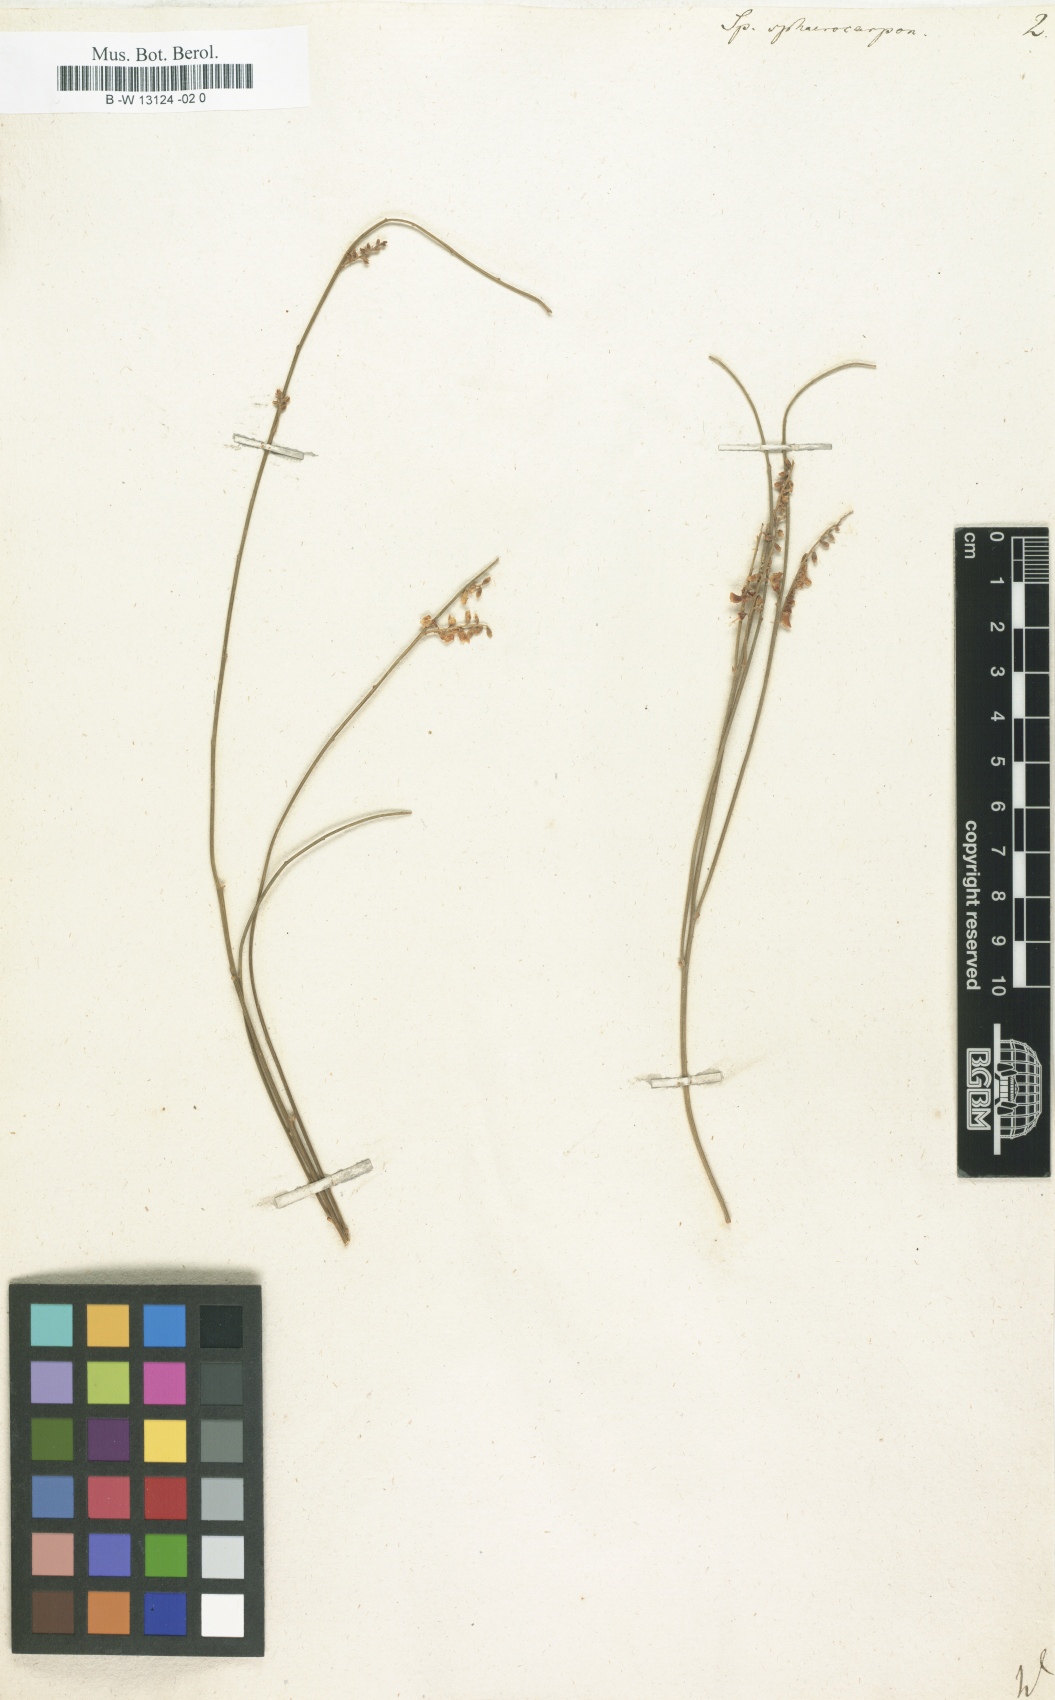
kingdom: Plantae
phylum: Tracheophyta
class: Magnoliopsida
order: Fabales
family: Fabaceae
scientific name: Fabaceae
